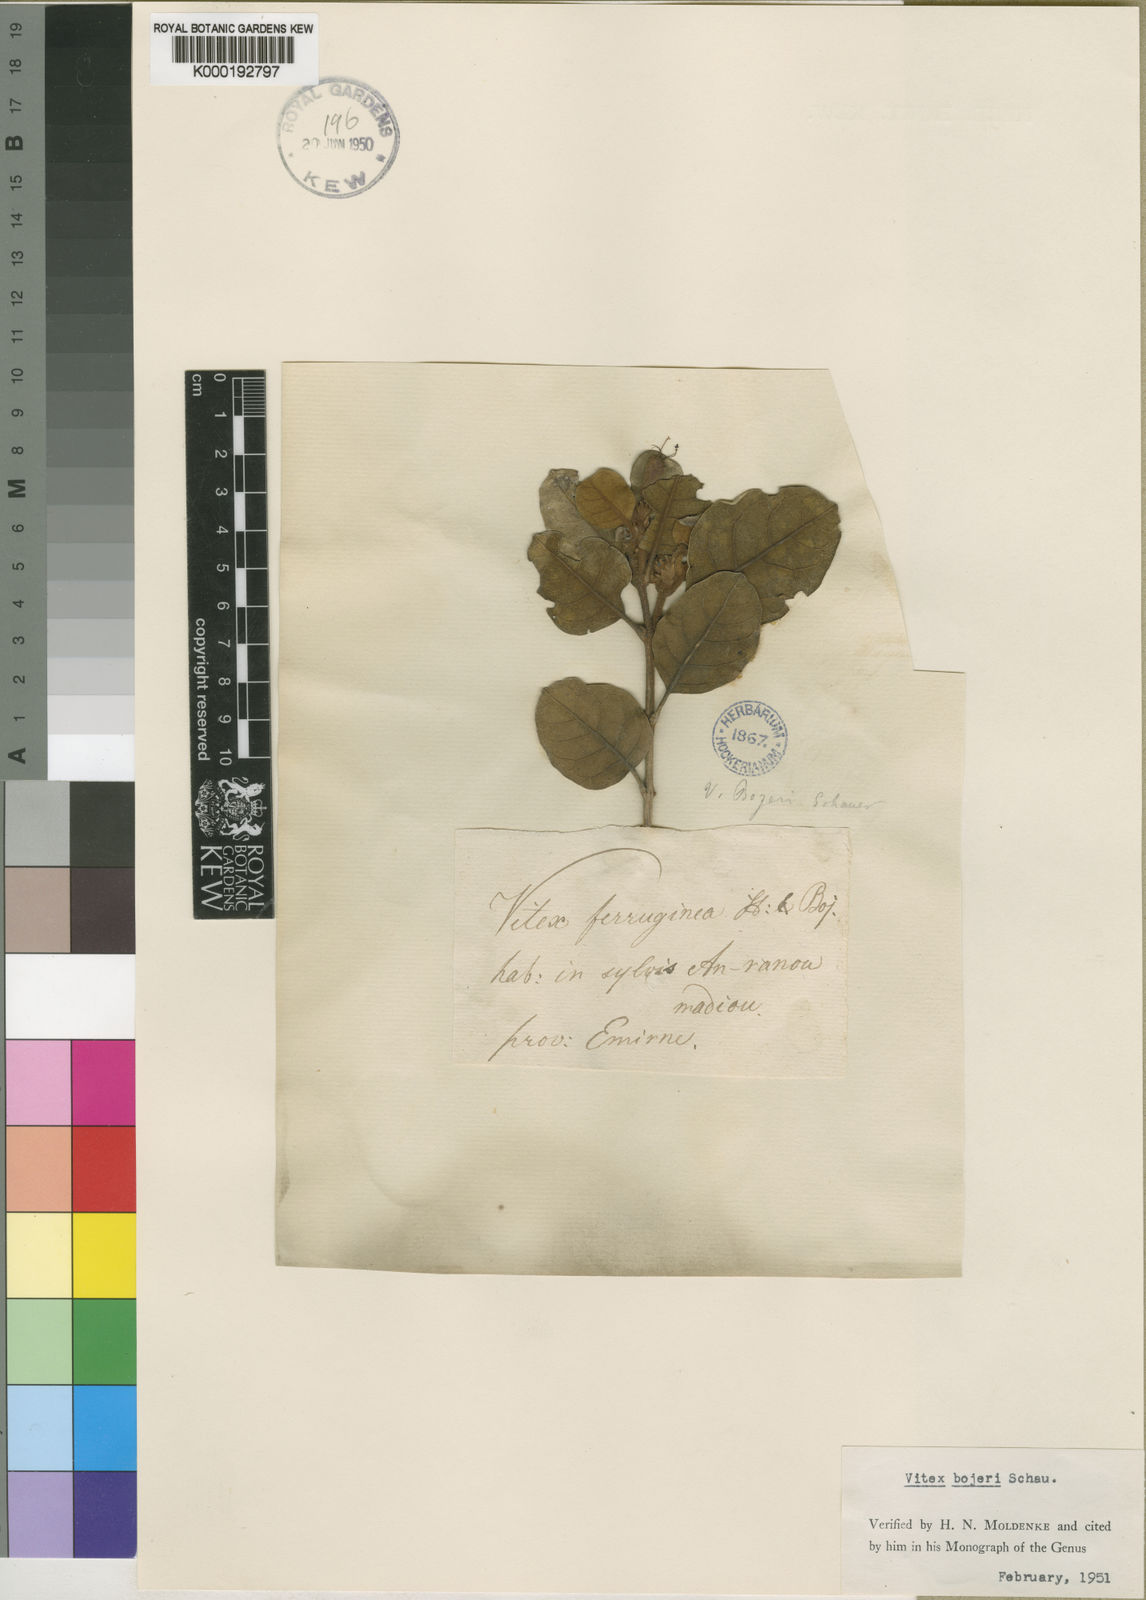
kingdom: Plantae
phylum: Tracheophyta
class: Magnoliopsida
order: Lamiales
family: Lamiaceae
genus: Vitex
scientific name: Vitex bojeri
